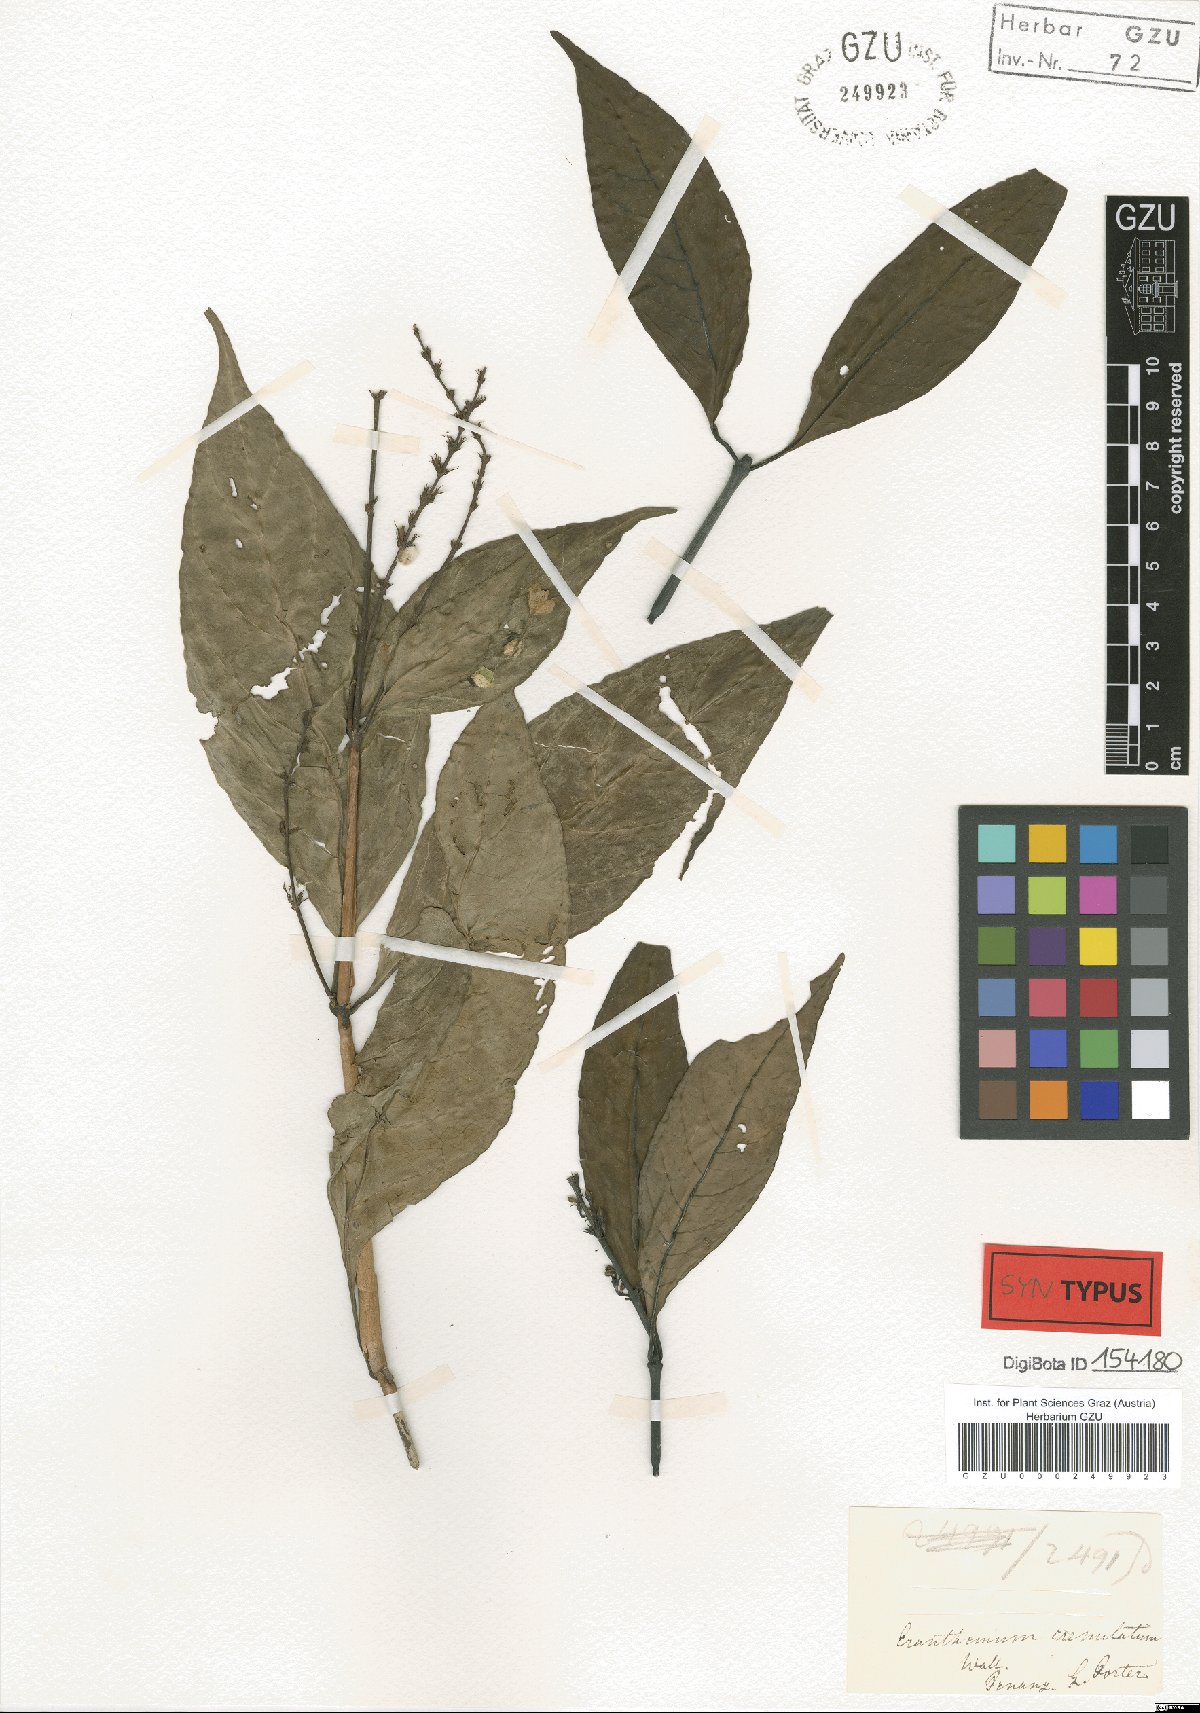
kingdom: Plantae
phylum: Tracheophyta
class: Magnoliopsida
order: Lamiales
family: Acanthaceae
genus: Pseuderanthemum
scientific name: Pseuderanthemum crenulatum
